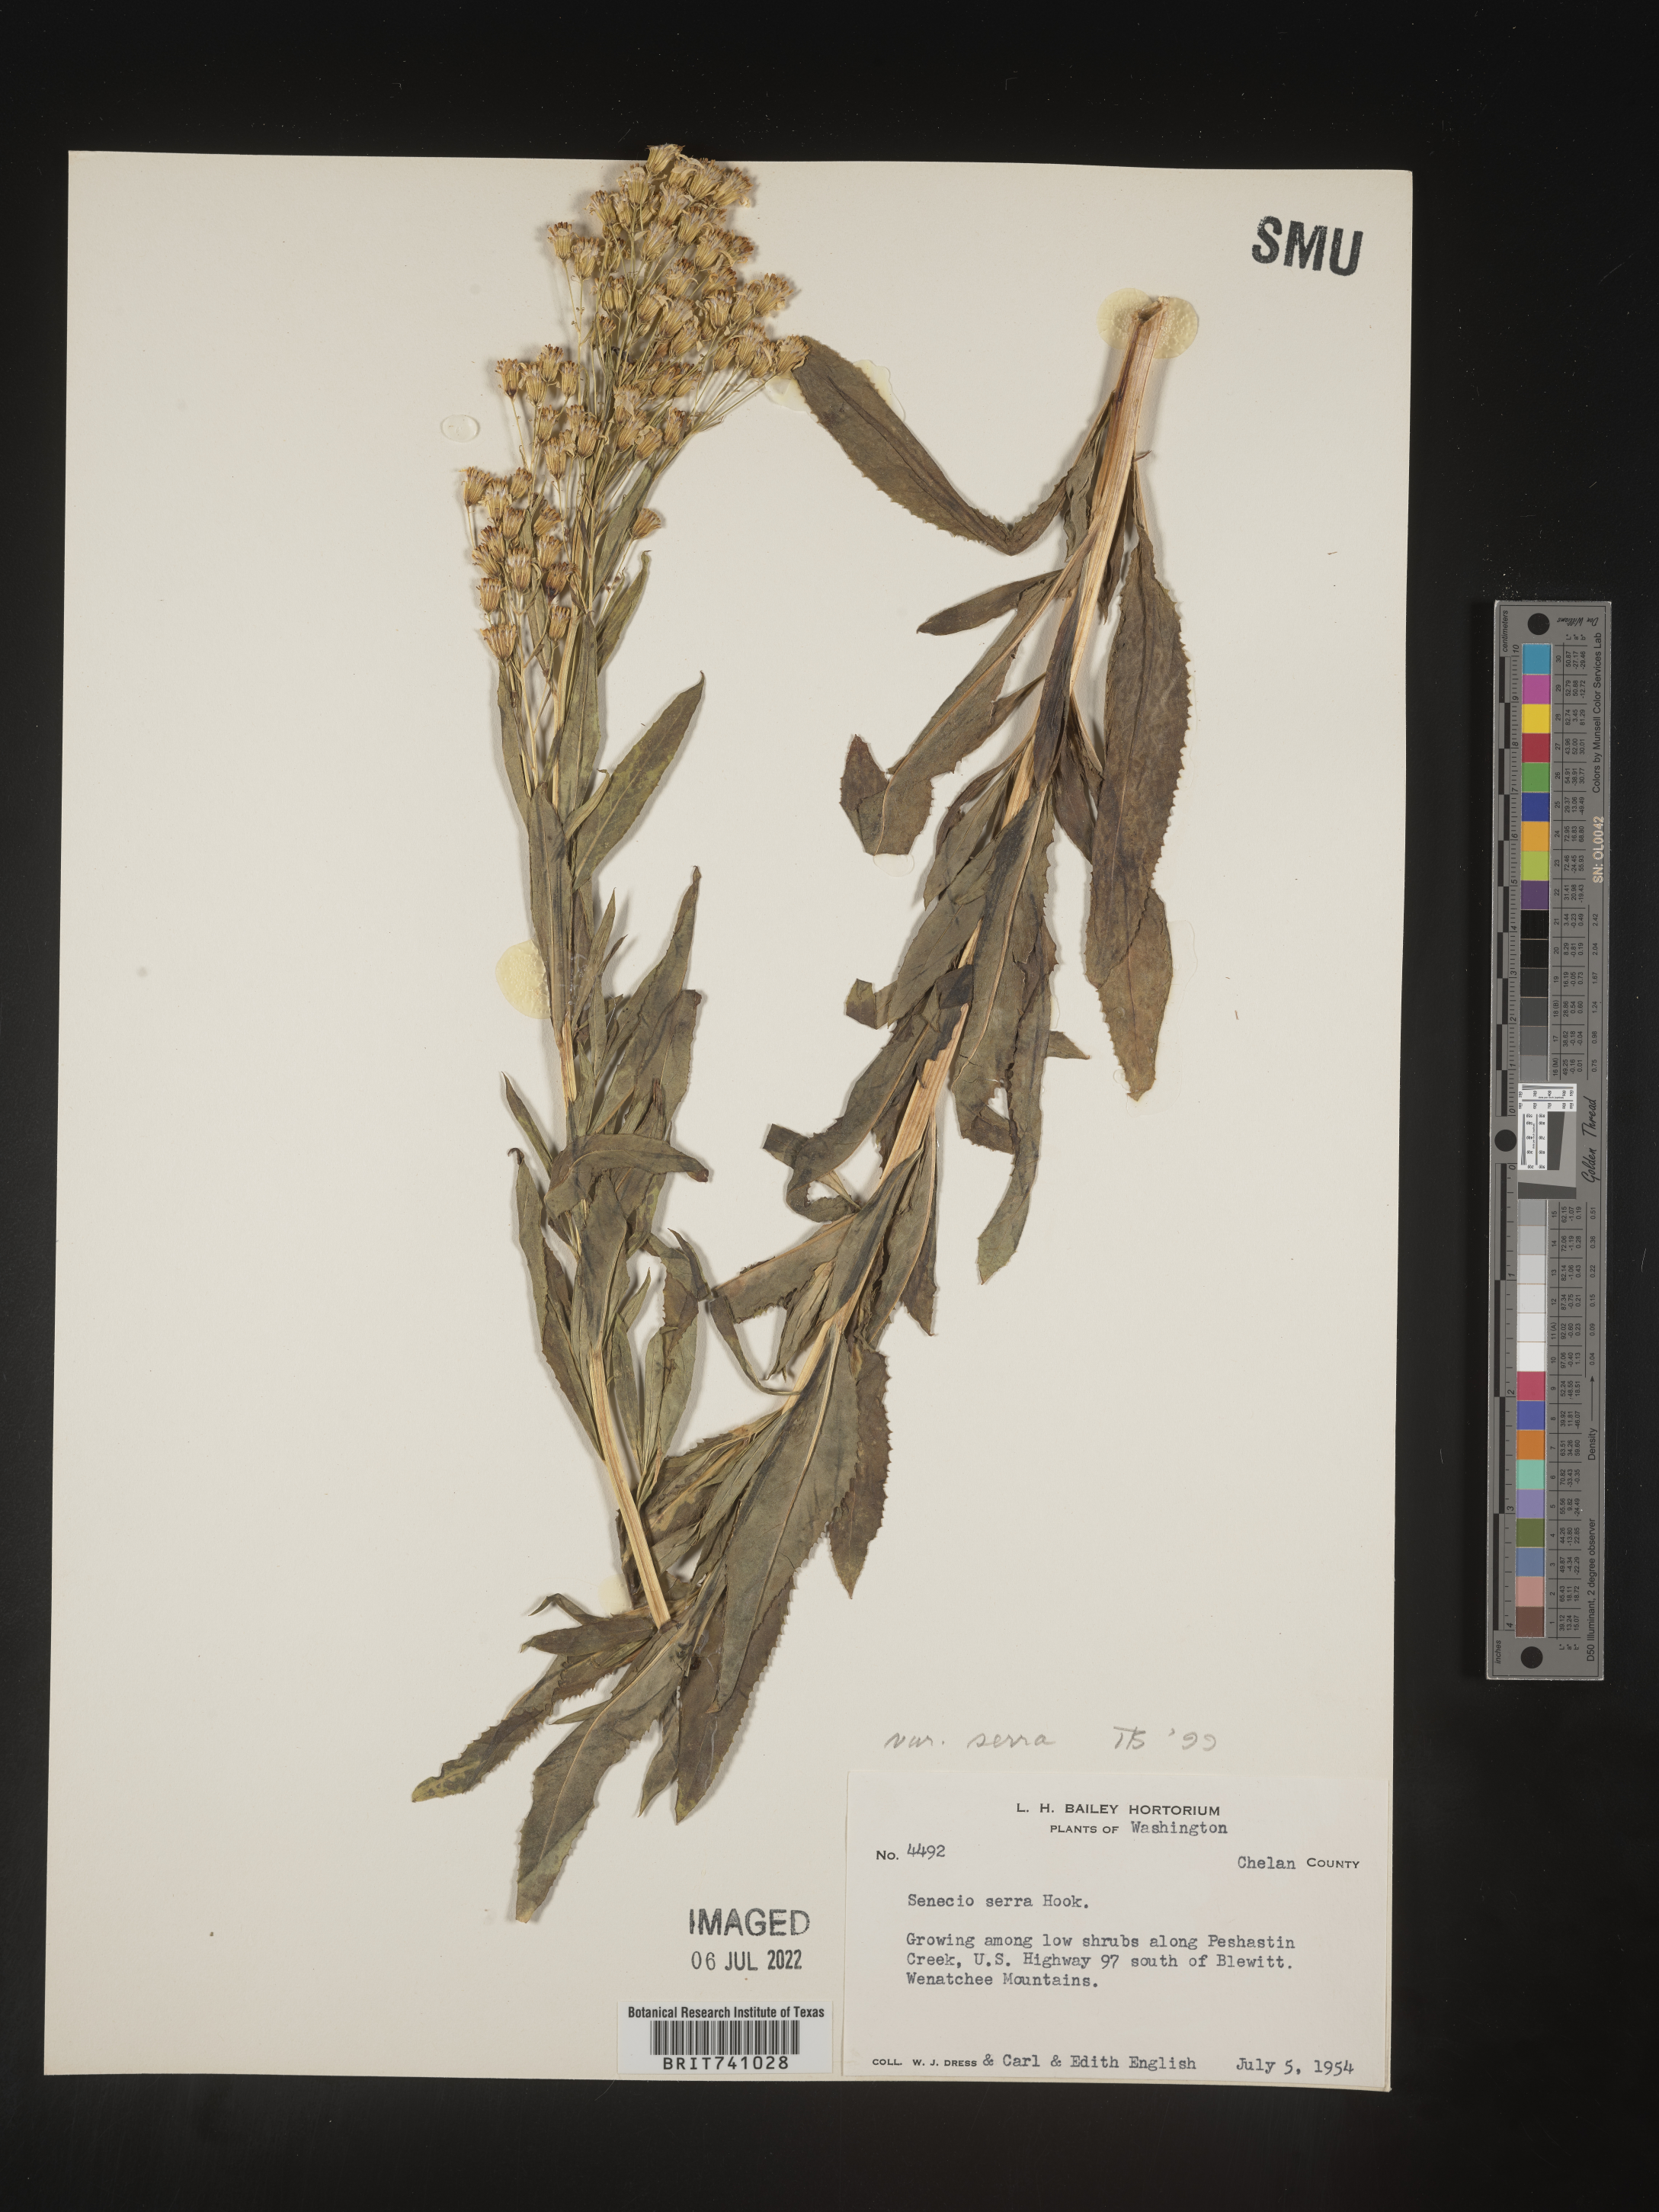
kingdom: Plantae
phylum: Tracheophyta
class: Magnoliopsida
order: Asterales
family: Asteraceae
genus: Senecio
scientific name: Senecio serra
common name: Tall ragwort
